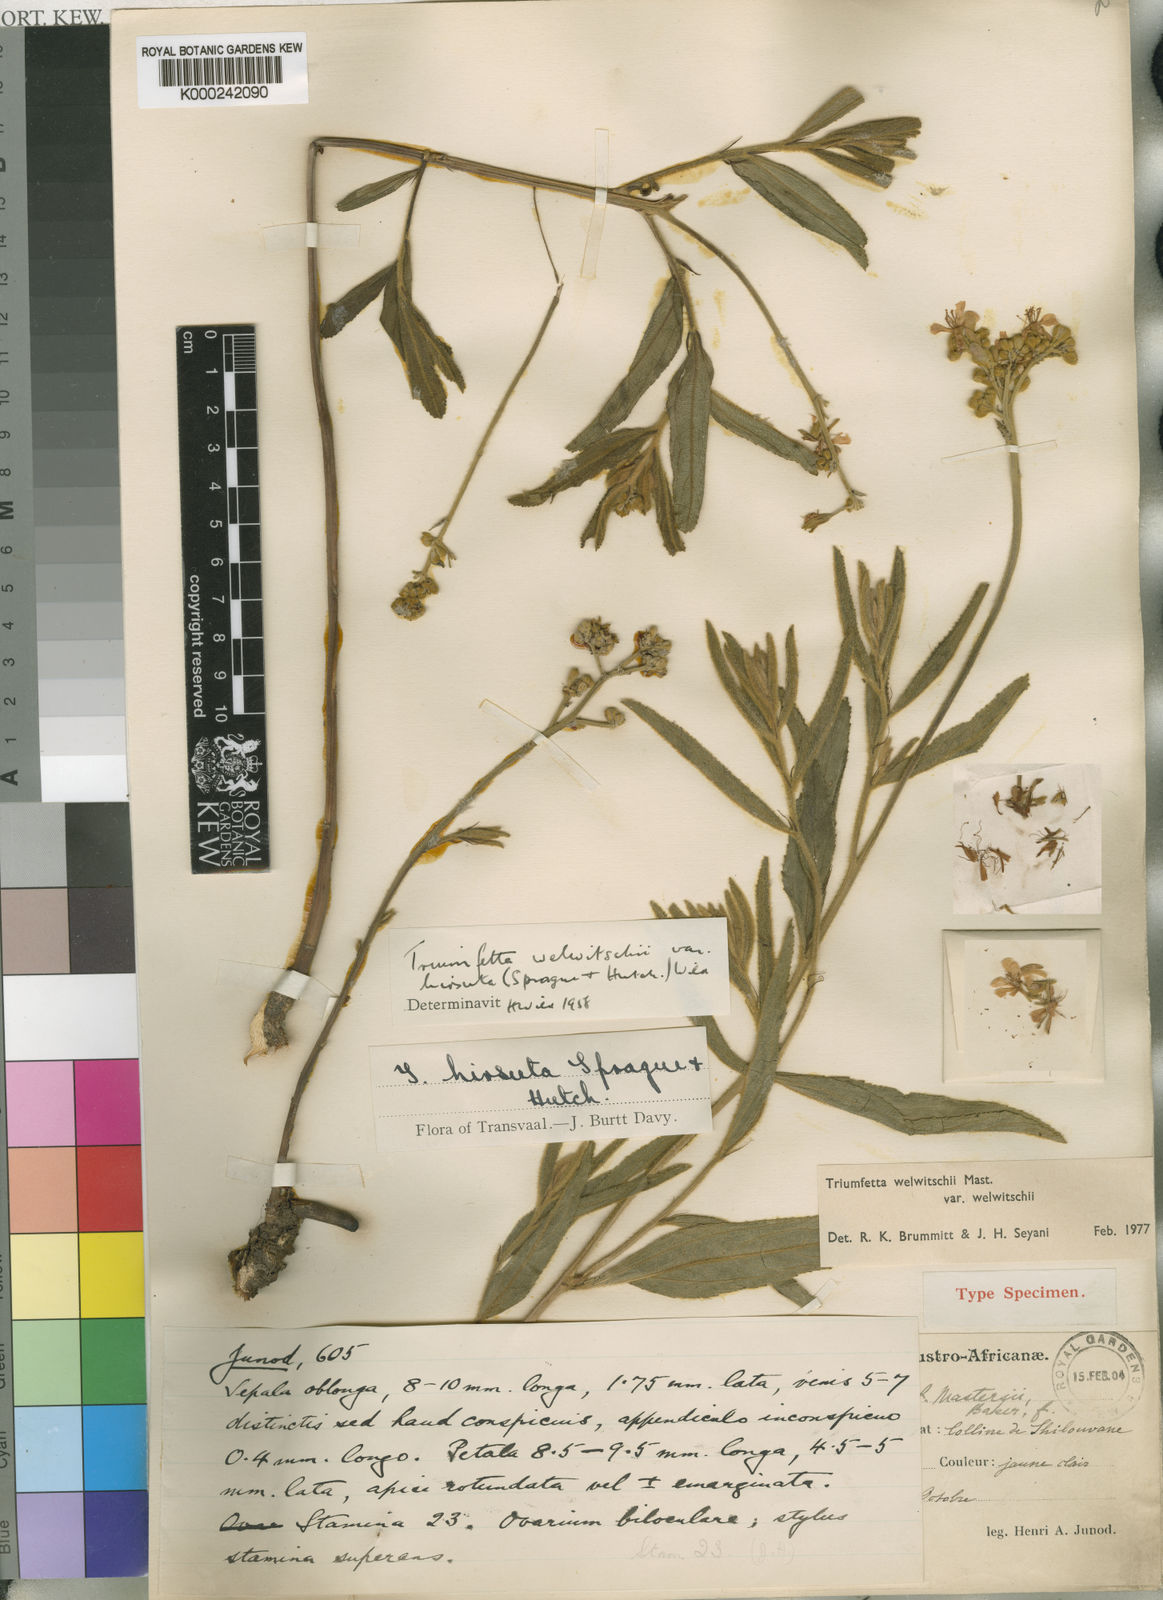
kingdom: Plantae
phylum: Tracheophyta
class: Magnoliopsida
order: Malvales
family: Malvaceae
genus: Triumfetta
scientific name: Triumfetta welwitschii
